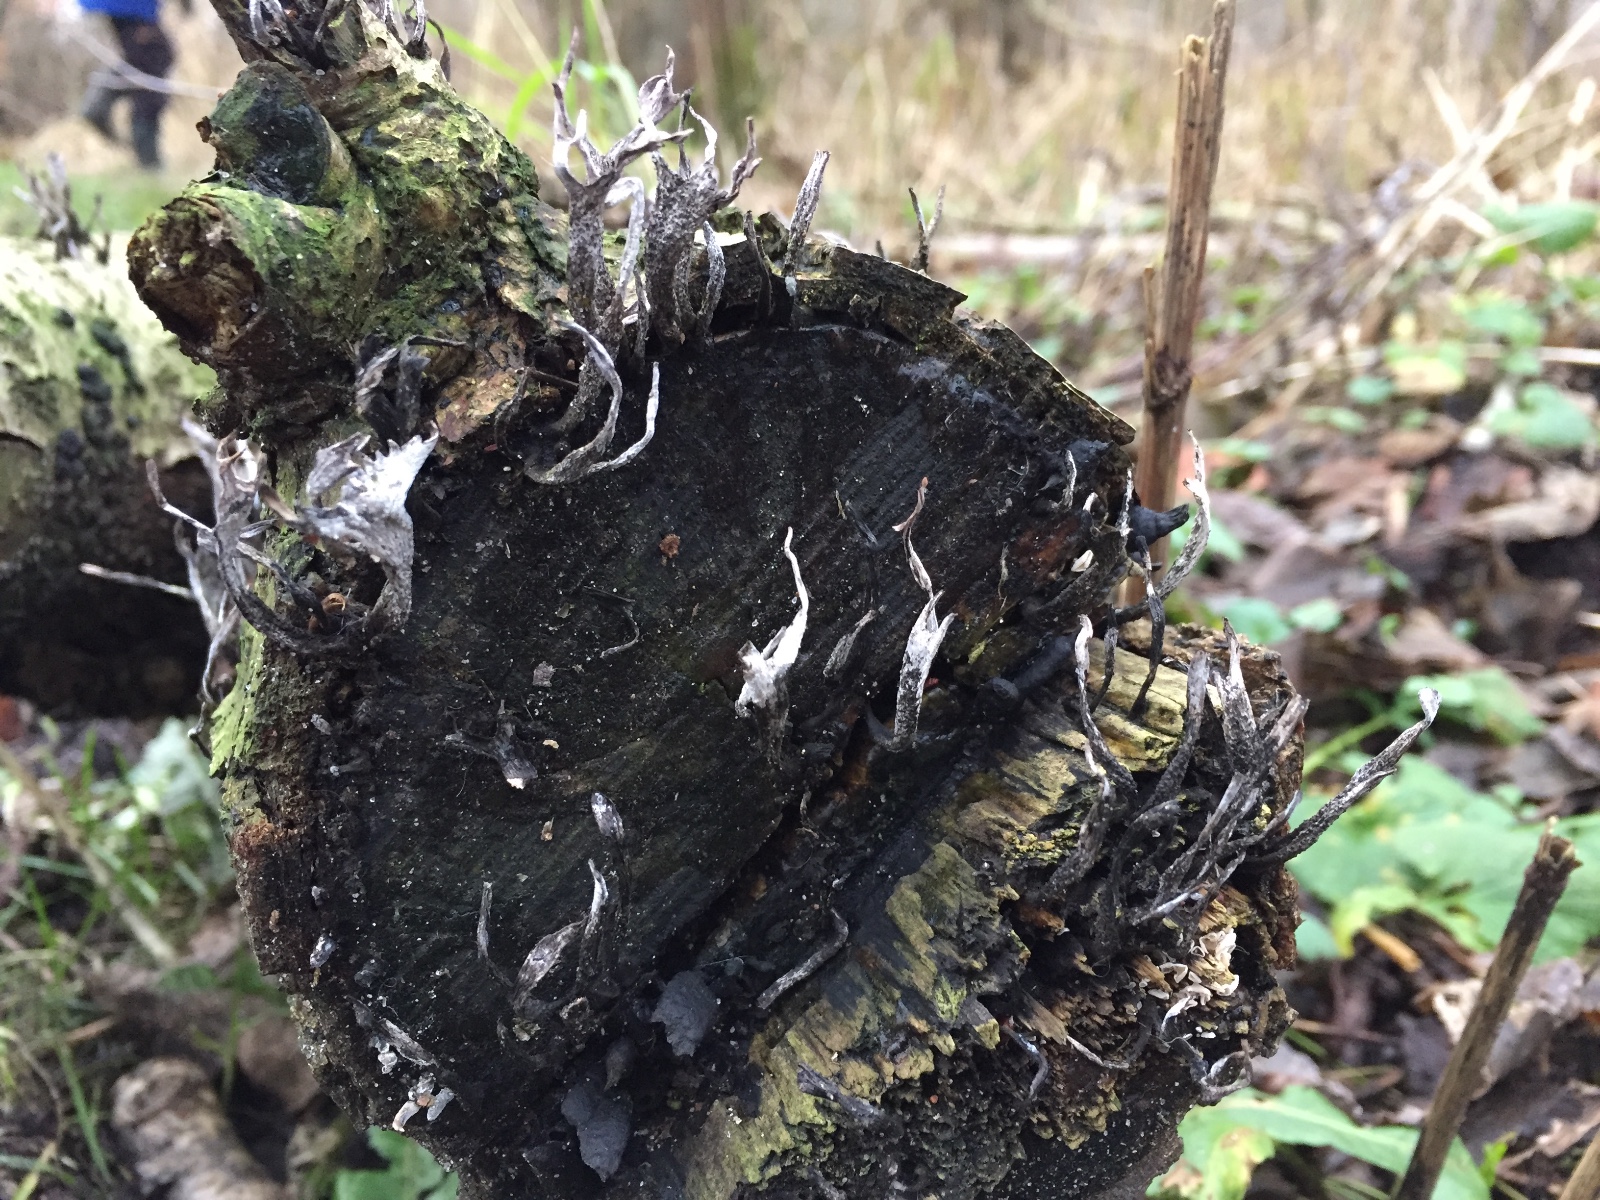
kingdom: Fungi
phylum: Ascomycota
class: Sordariomycetes
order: Xylariales
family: Xylariaceae
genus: Xylaria
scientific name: Xylaria hypoxylon
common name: grenet stødsvamp
